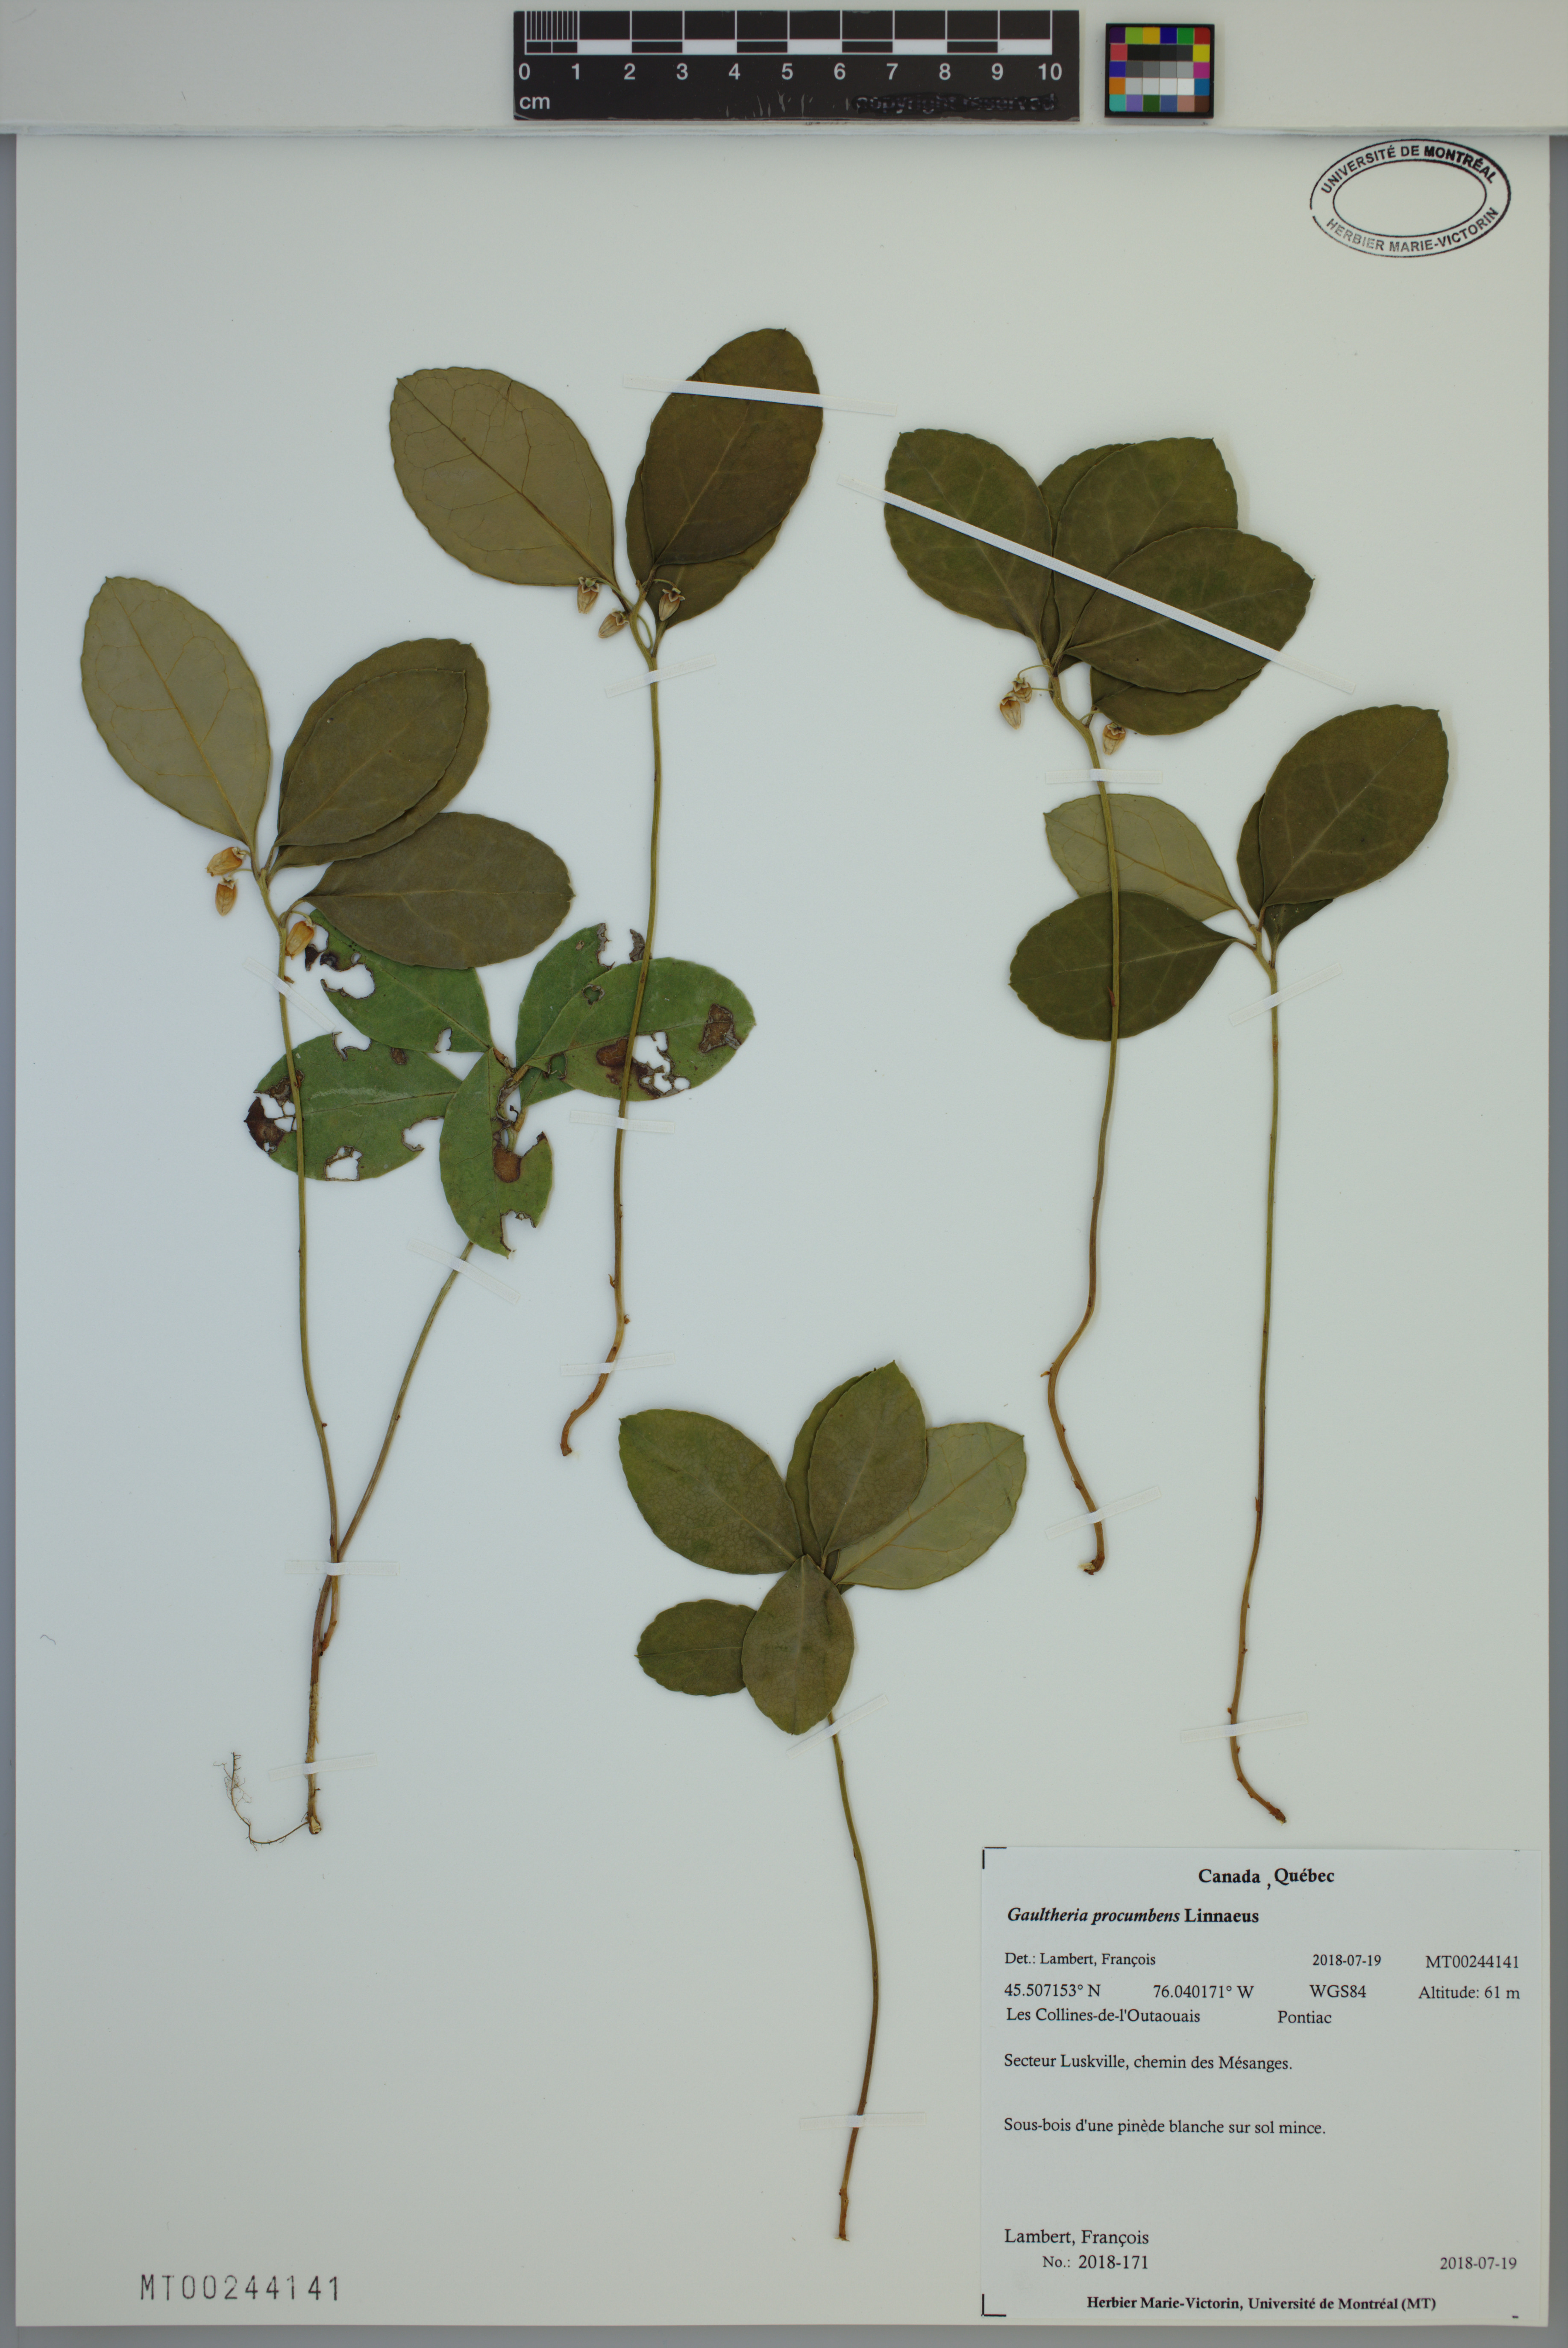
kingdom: Plantae
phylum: Tracheophyta
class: Magnoliopsida
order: Ericales
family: Ericaceae
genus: Gaultheria
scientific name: Gaultheria procumbens
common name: Checkerberry
